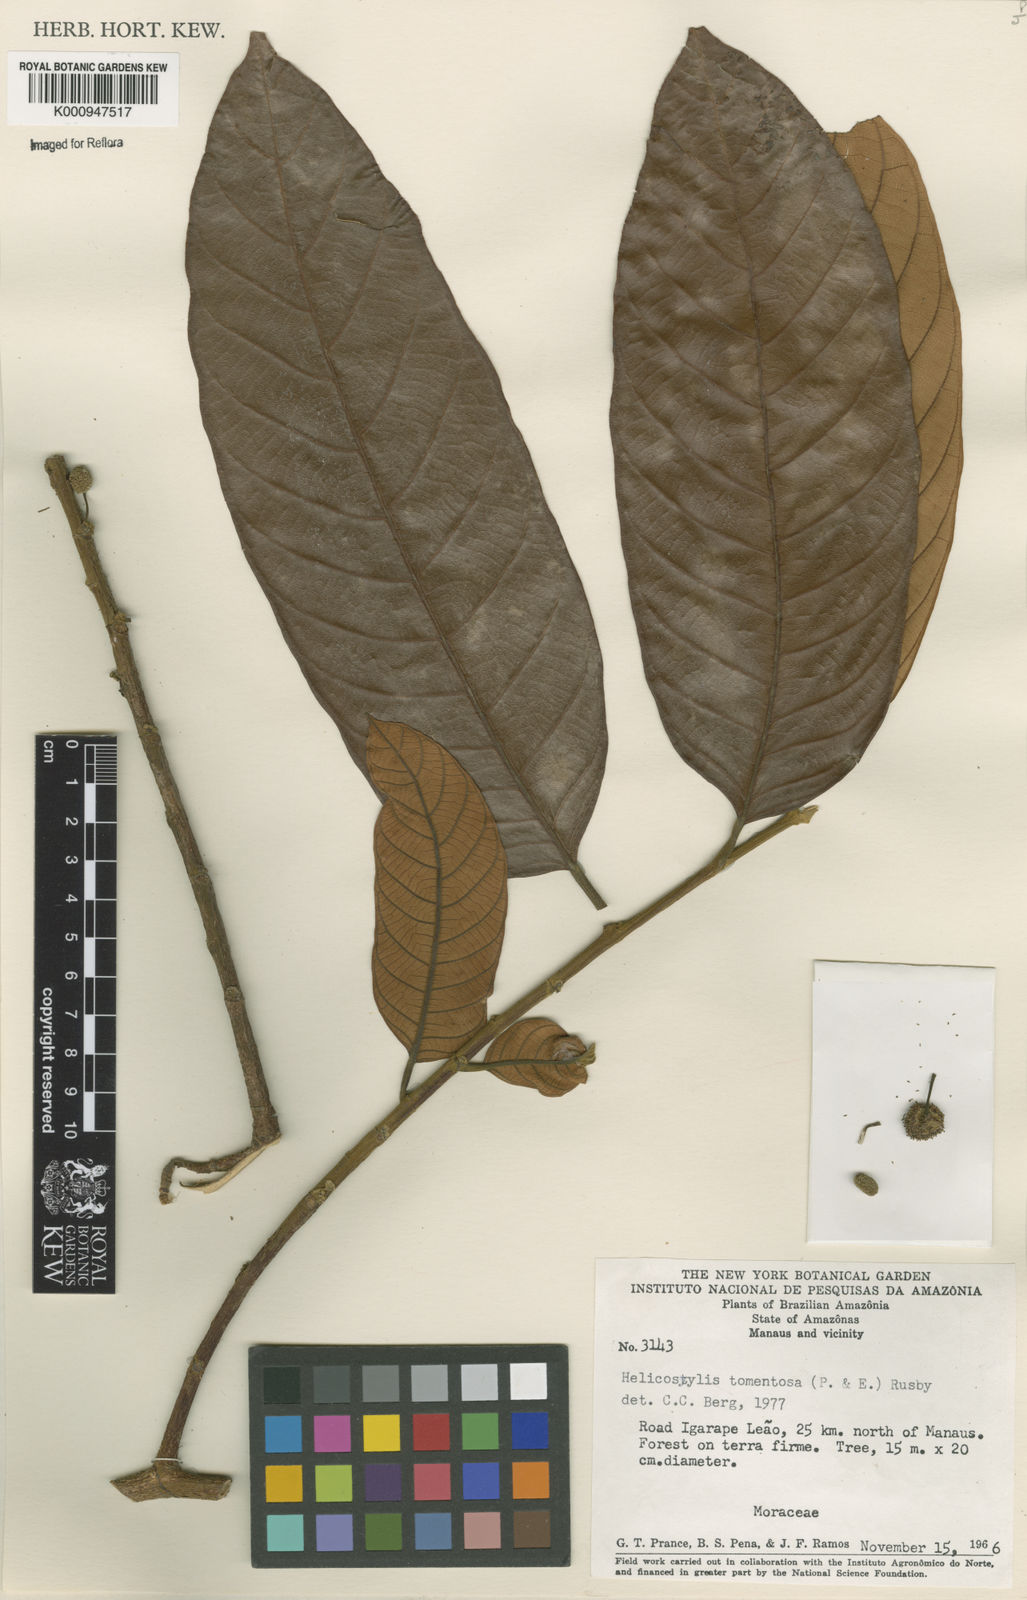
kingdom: Plantae
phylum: Tracheophyta
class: Magnoliopsida
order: Rosales
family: Moraceae
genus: Helicostylis
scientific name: Helicostylis
